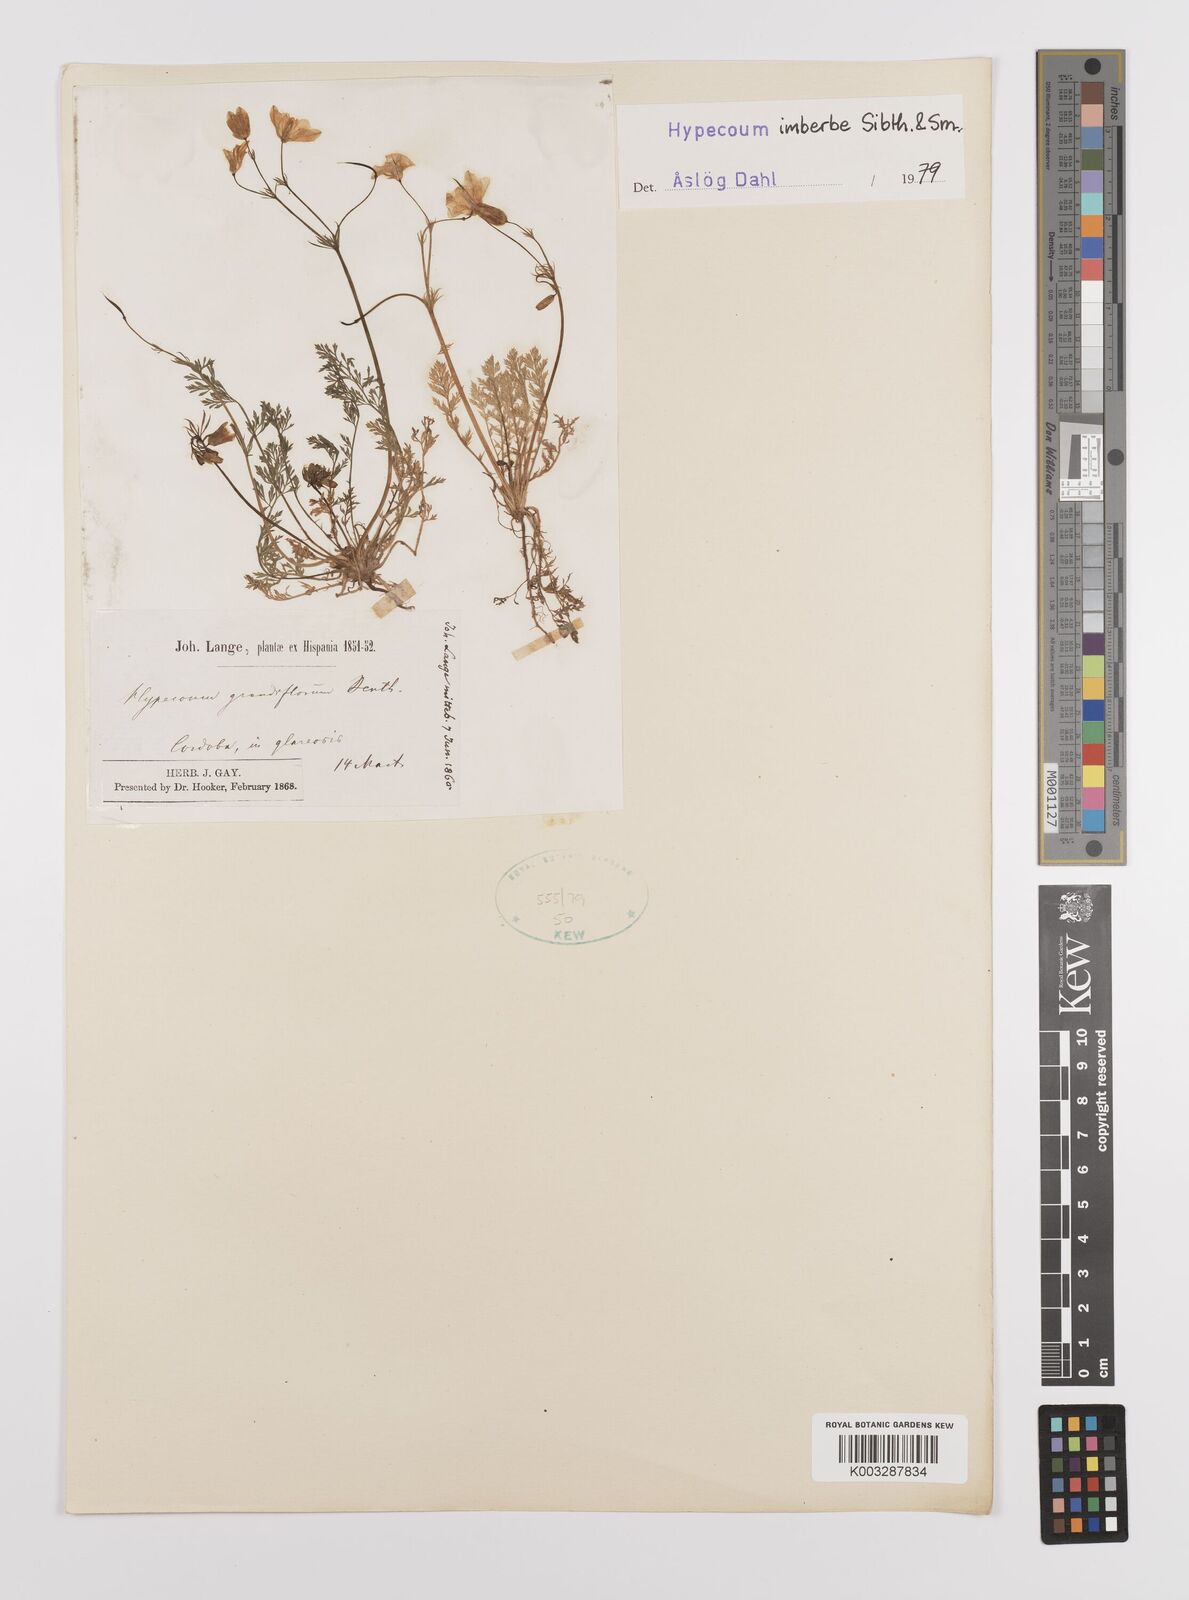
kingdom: Plantae
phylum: Tracheophyta
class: Magnoliopsida
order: Ranunculales
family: Papaveraceae
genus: Hypecoum
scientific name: Hypecoum imberbe
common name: Sicklefruit hypecoum
